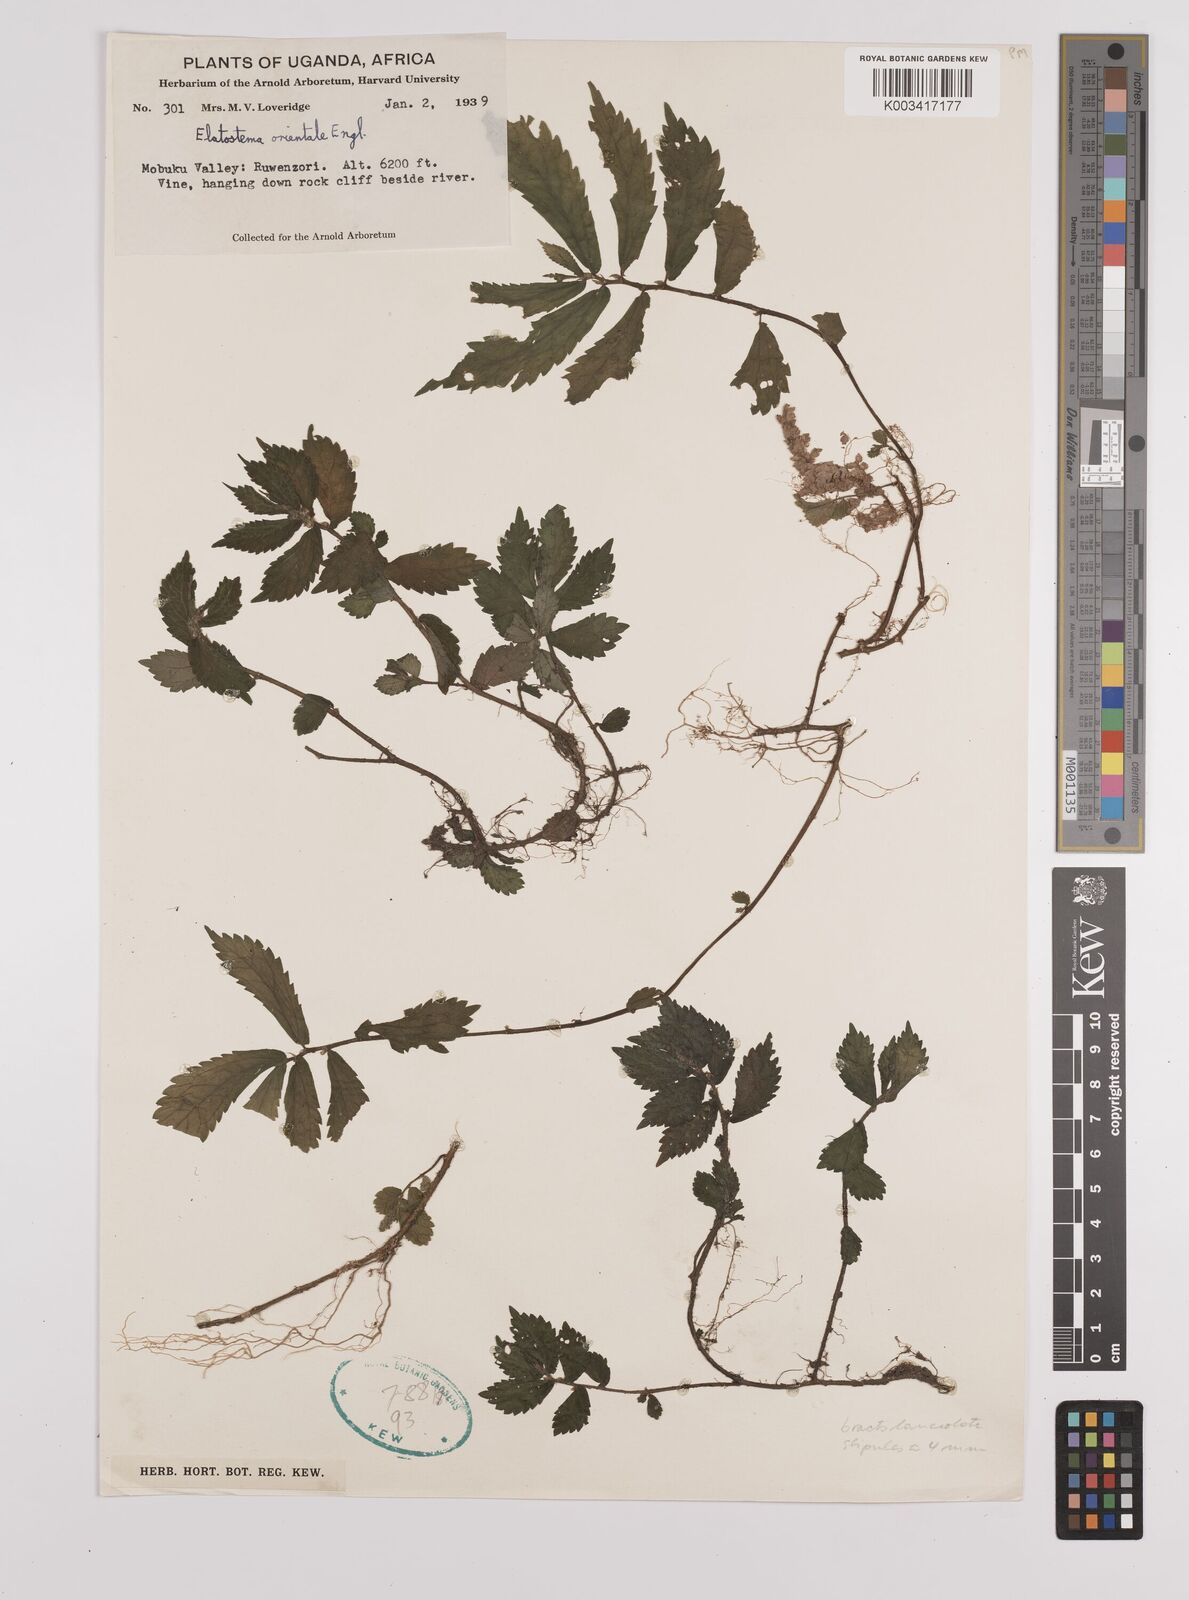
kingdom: Plantae
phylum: Tracheophyta
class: Magnoliopsida
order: Rosales
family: Urticaceae
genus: Elatostema
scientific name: Elatostema monticola
